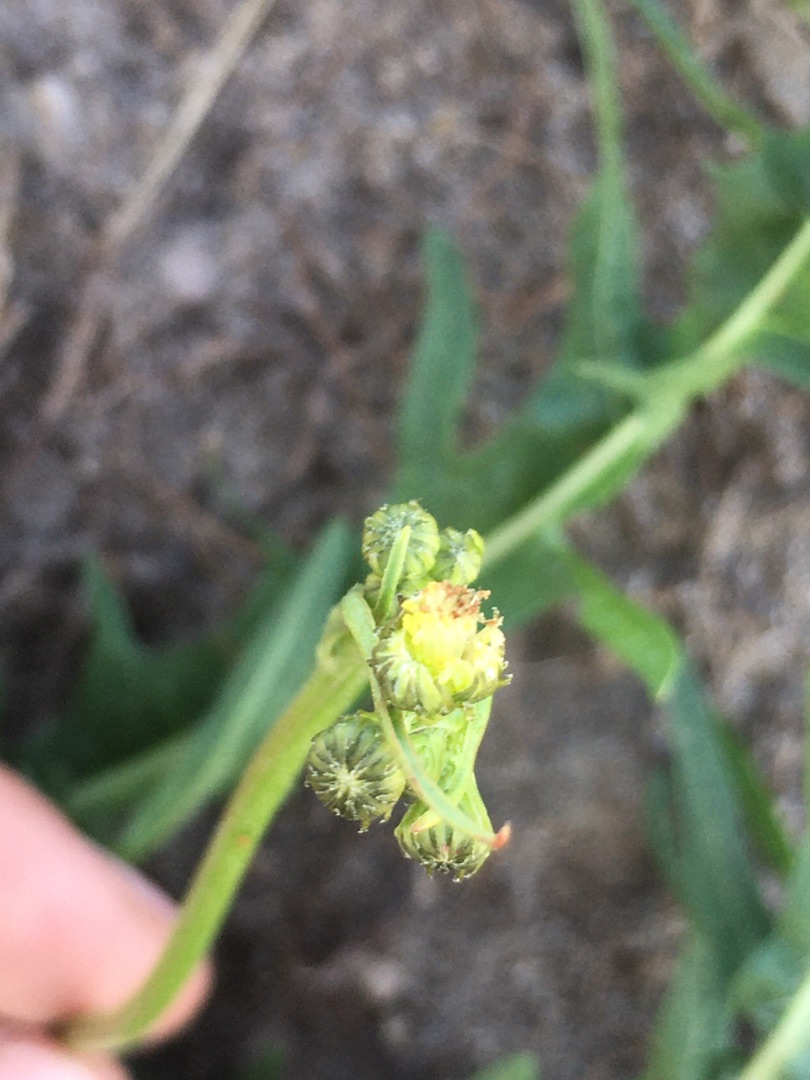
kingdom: Plantae
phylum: Tracheophyta
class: Magnoliopsida
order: Asterales
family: Asteraceae
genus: Scorzoneroides
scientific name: Scorzoneroides autumnalis
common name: Høst-borst
